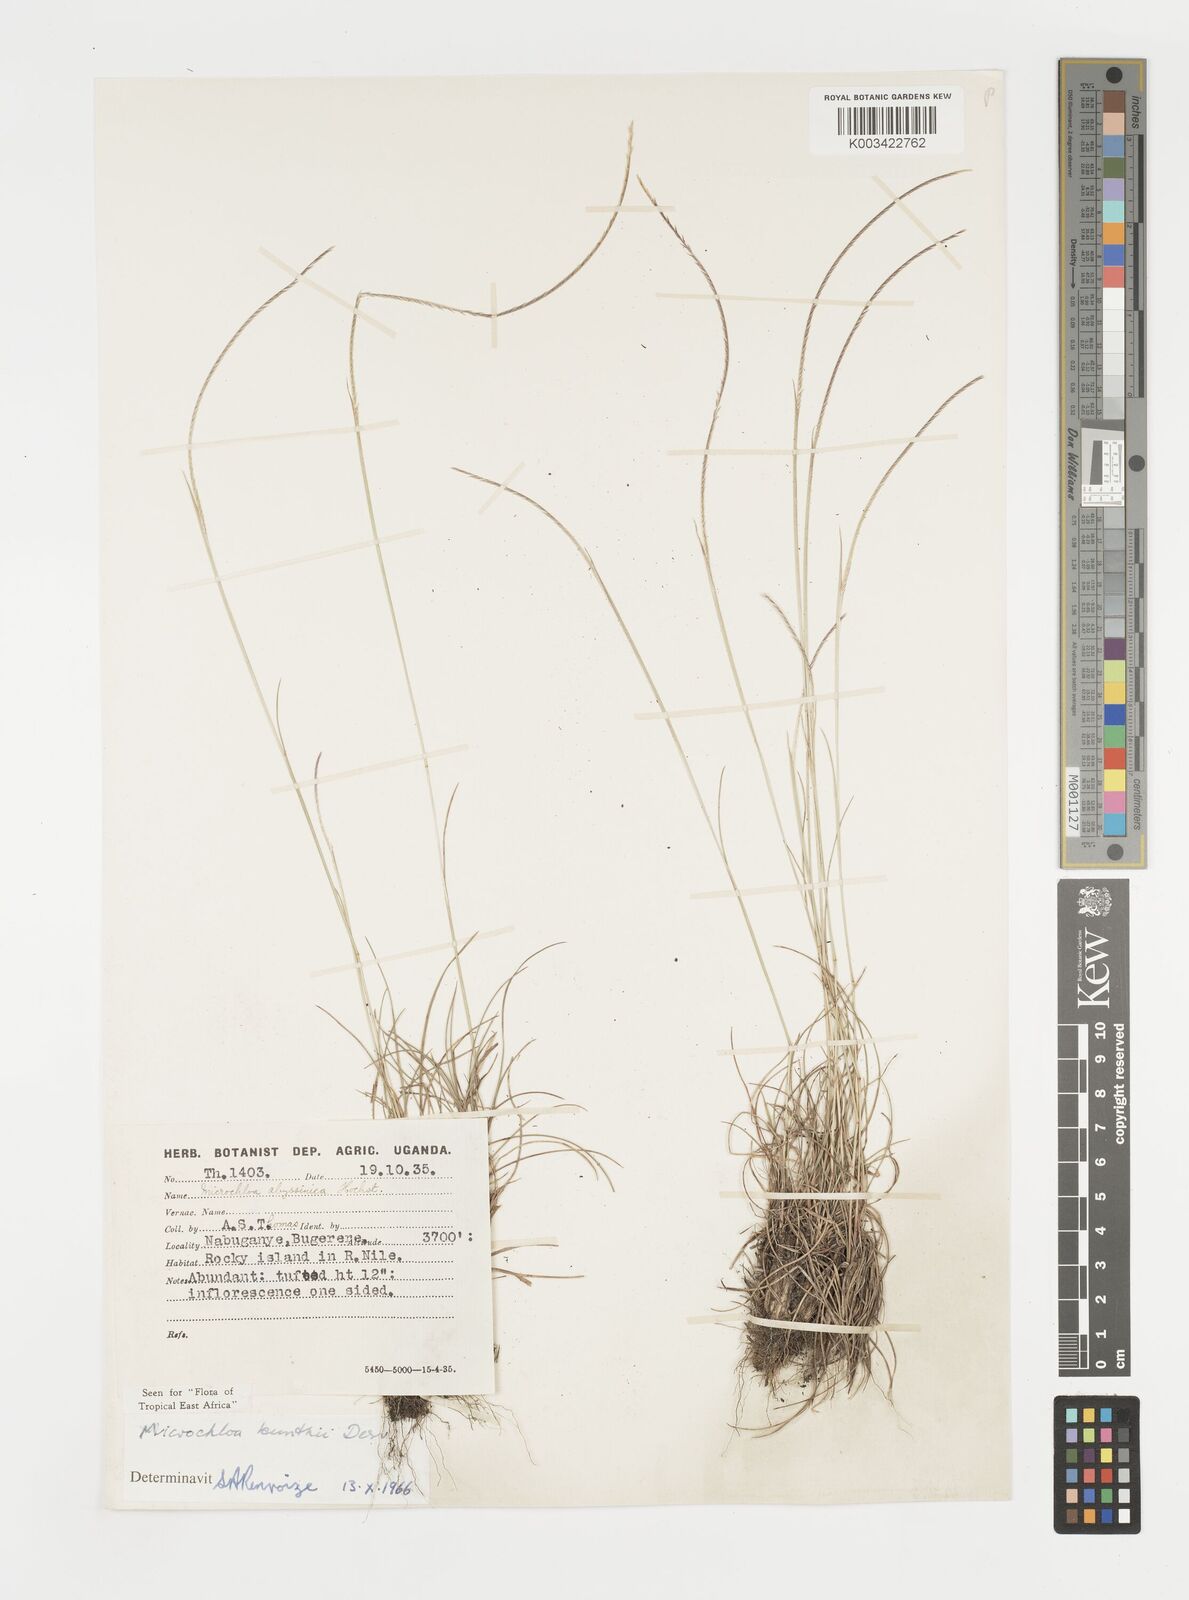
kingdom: Plantae
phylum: Tracheophyta
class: Liliopsida
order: Poales
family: Poaceae
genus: Microchloa
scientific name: Microchloa kunthii
